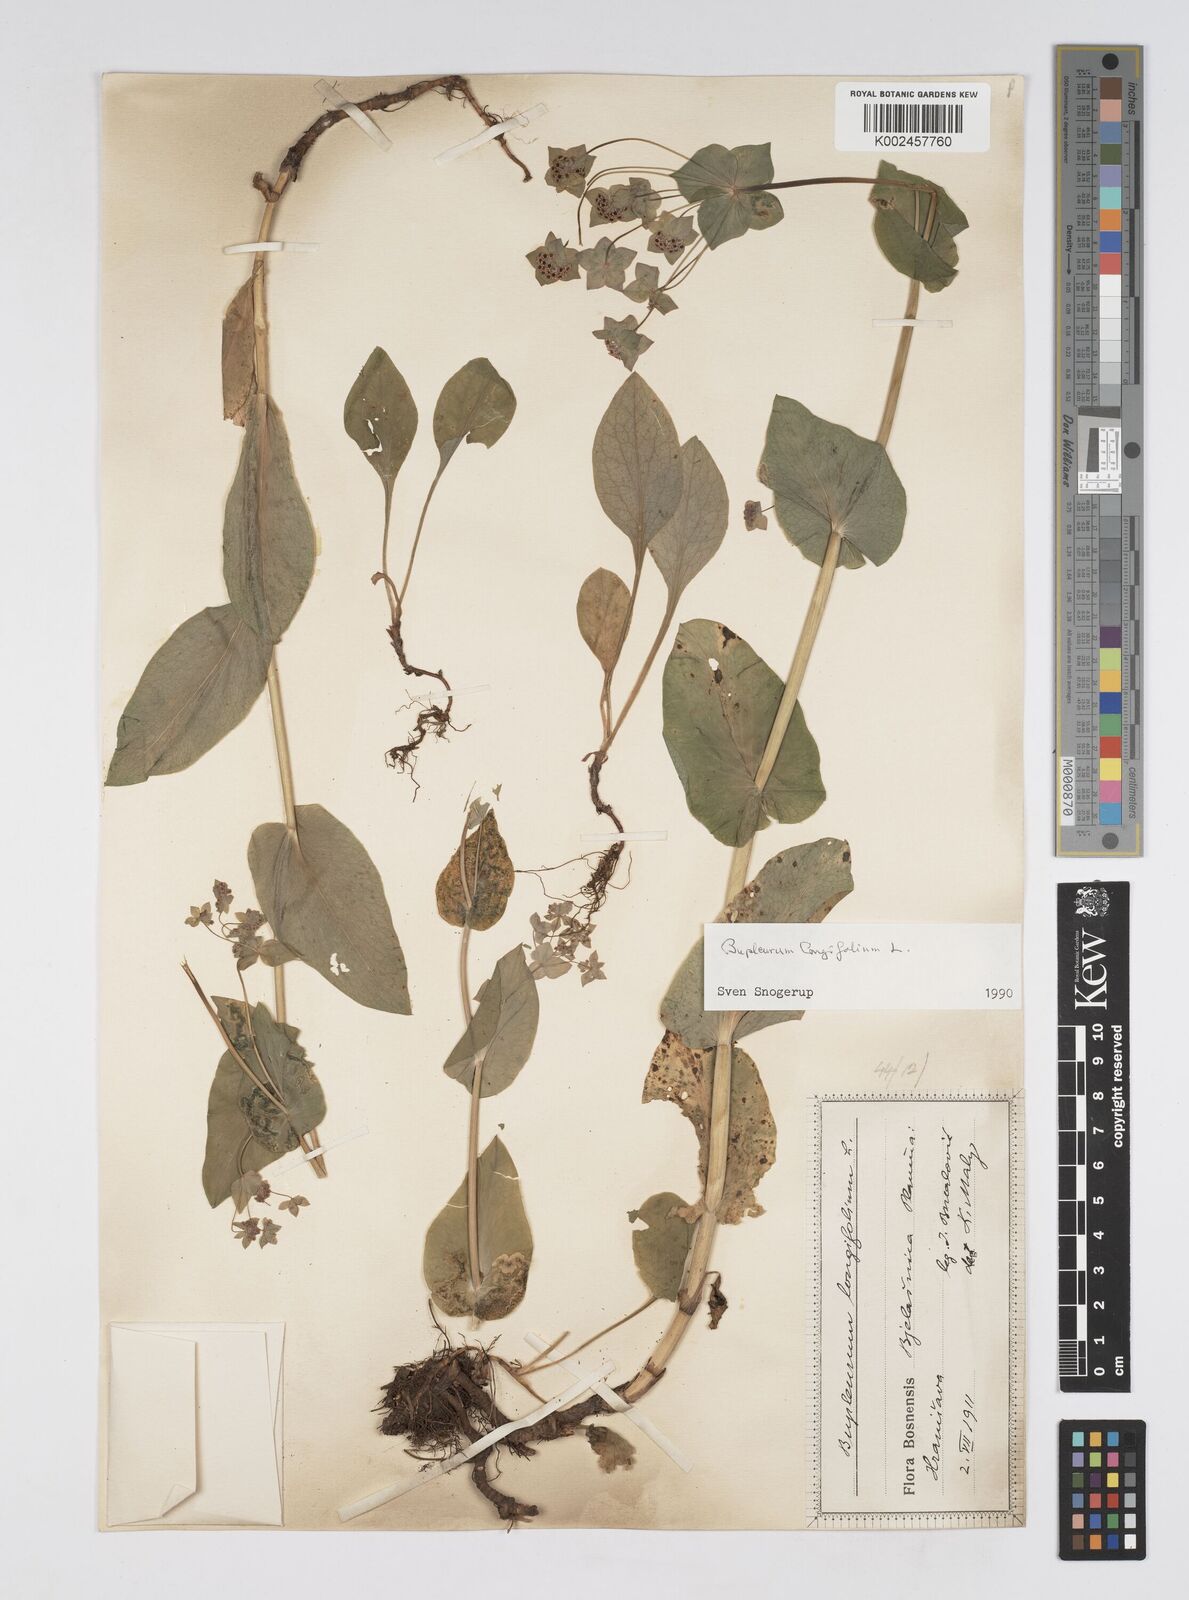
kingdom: Plantae
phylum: Tracheophyta
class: Magnoliopsida
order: Apiales
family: Apiaceae
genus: Bupleurum
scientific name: Bupleurum longifolium
